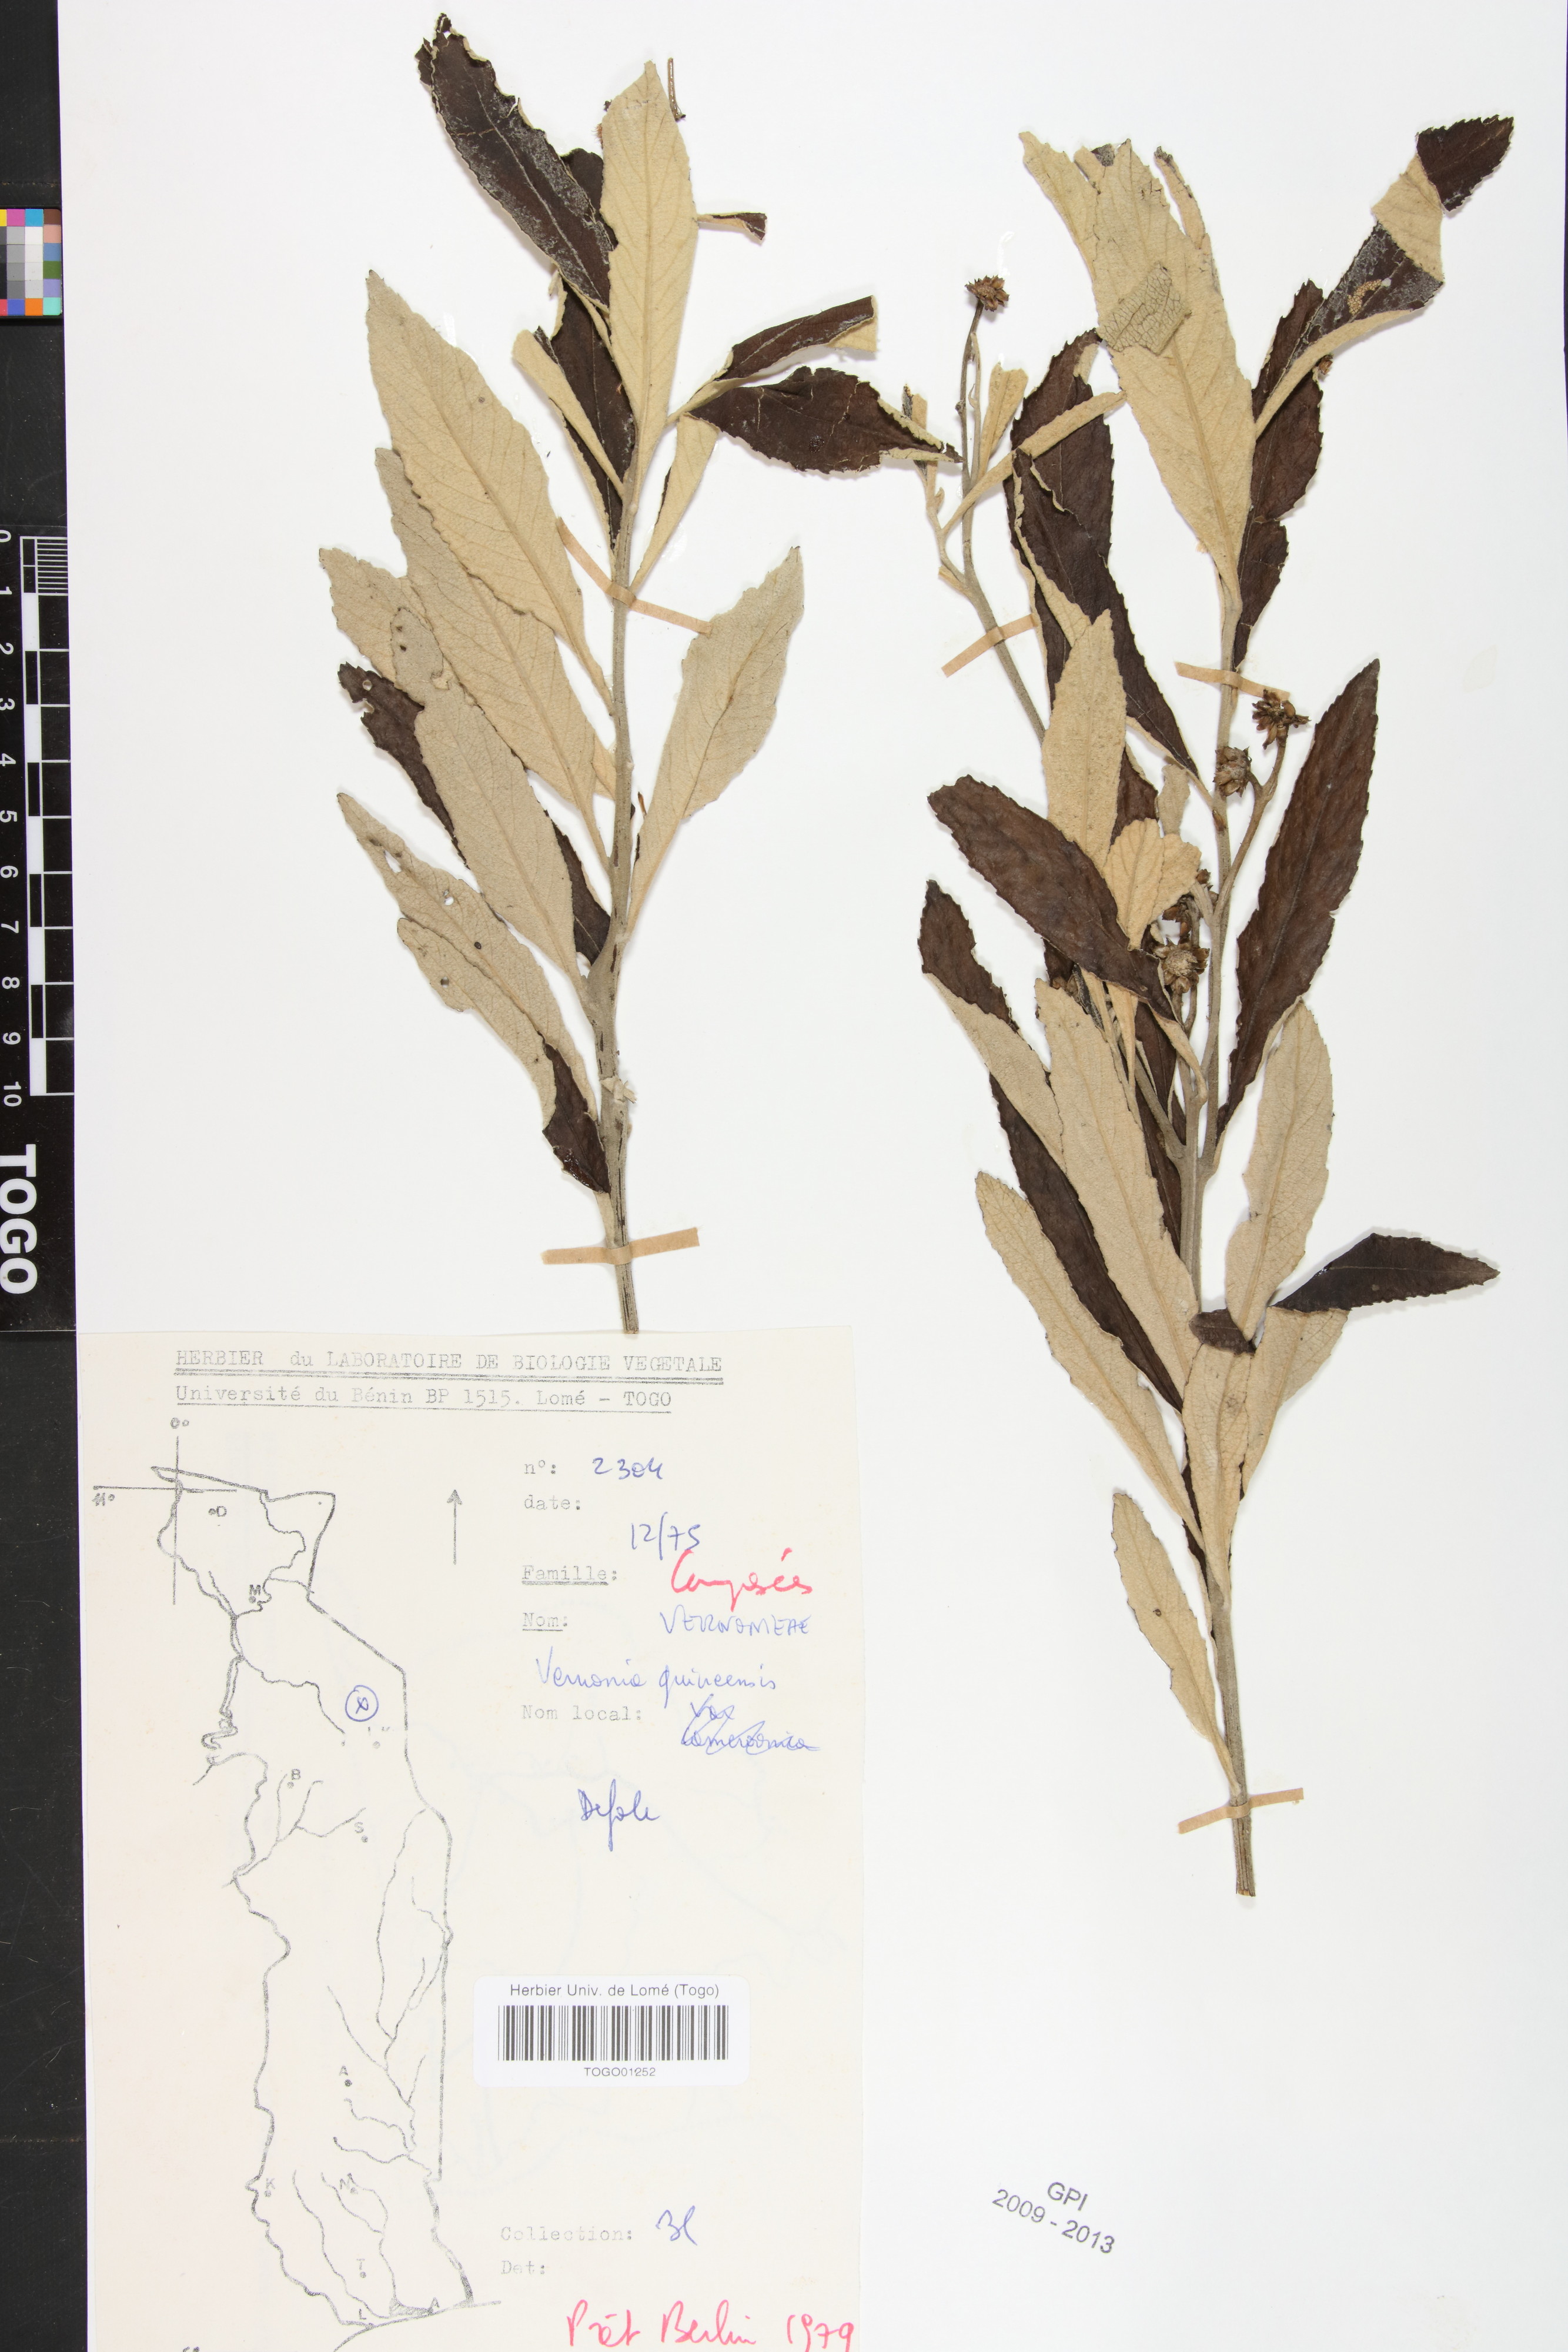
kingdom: Plantae
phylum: Tracheophyta
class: Magnoliopsida
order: Asterales
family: Asteraceae
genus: Baccharoides
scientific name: Baccharoides guineensis
